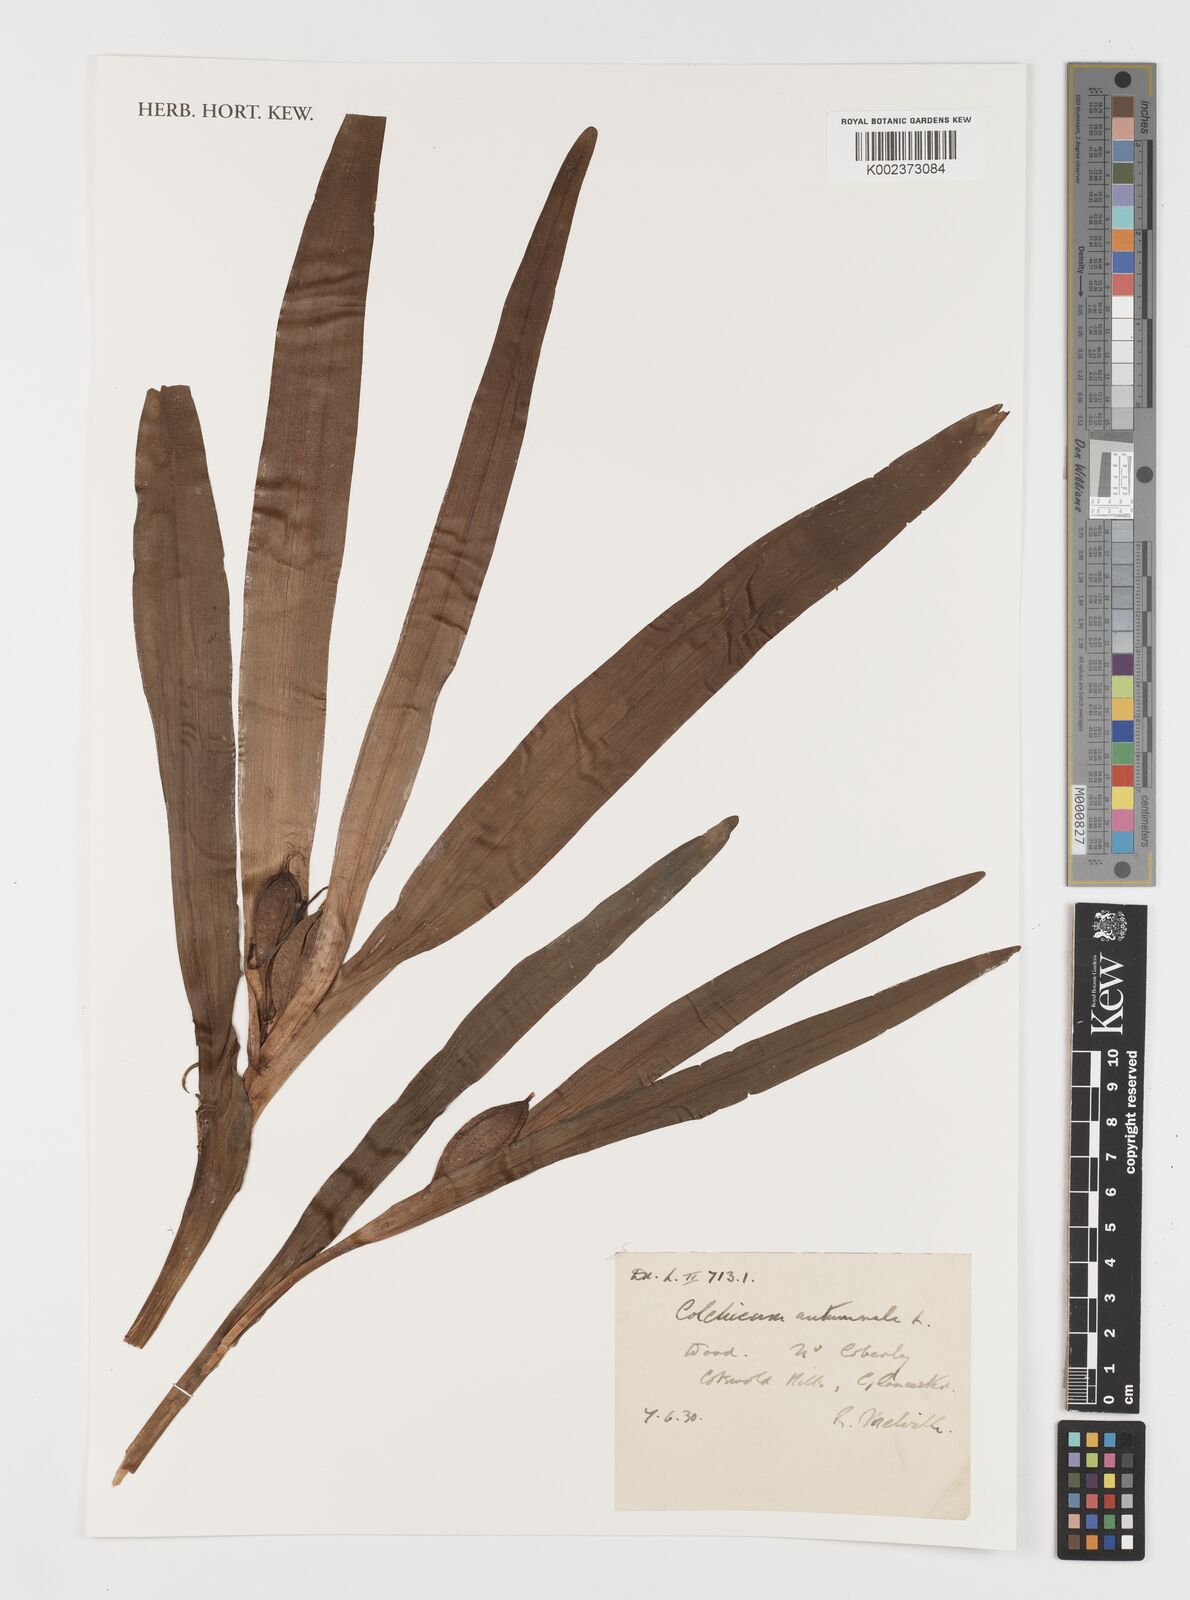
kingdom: Plantae
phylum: Tracheophyta
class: Liliopsida
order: Liliales
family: Colchicaceae
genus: Colchicum
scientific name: Colchicum autumnale
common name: Autumn crocus
